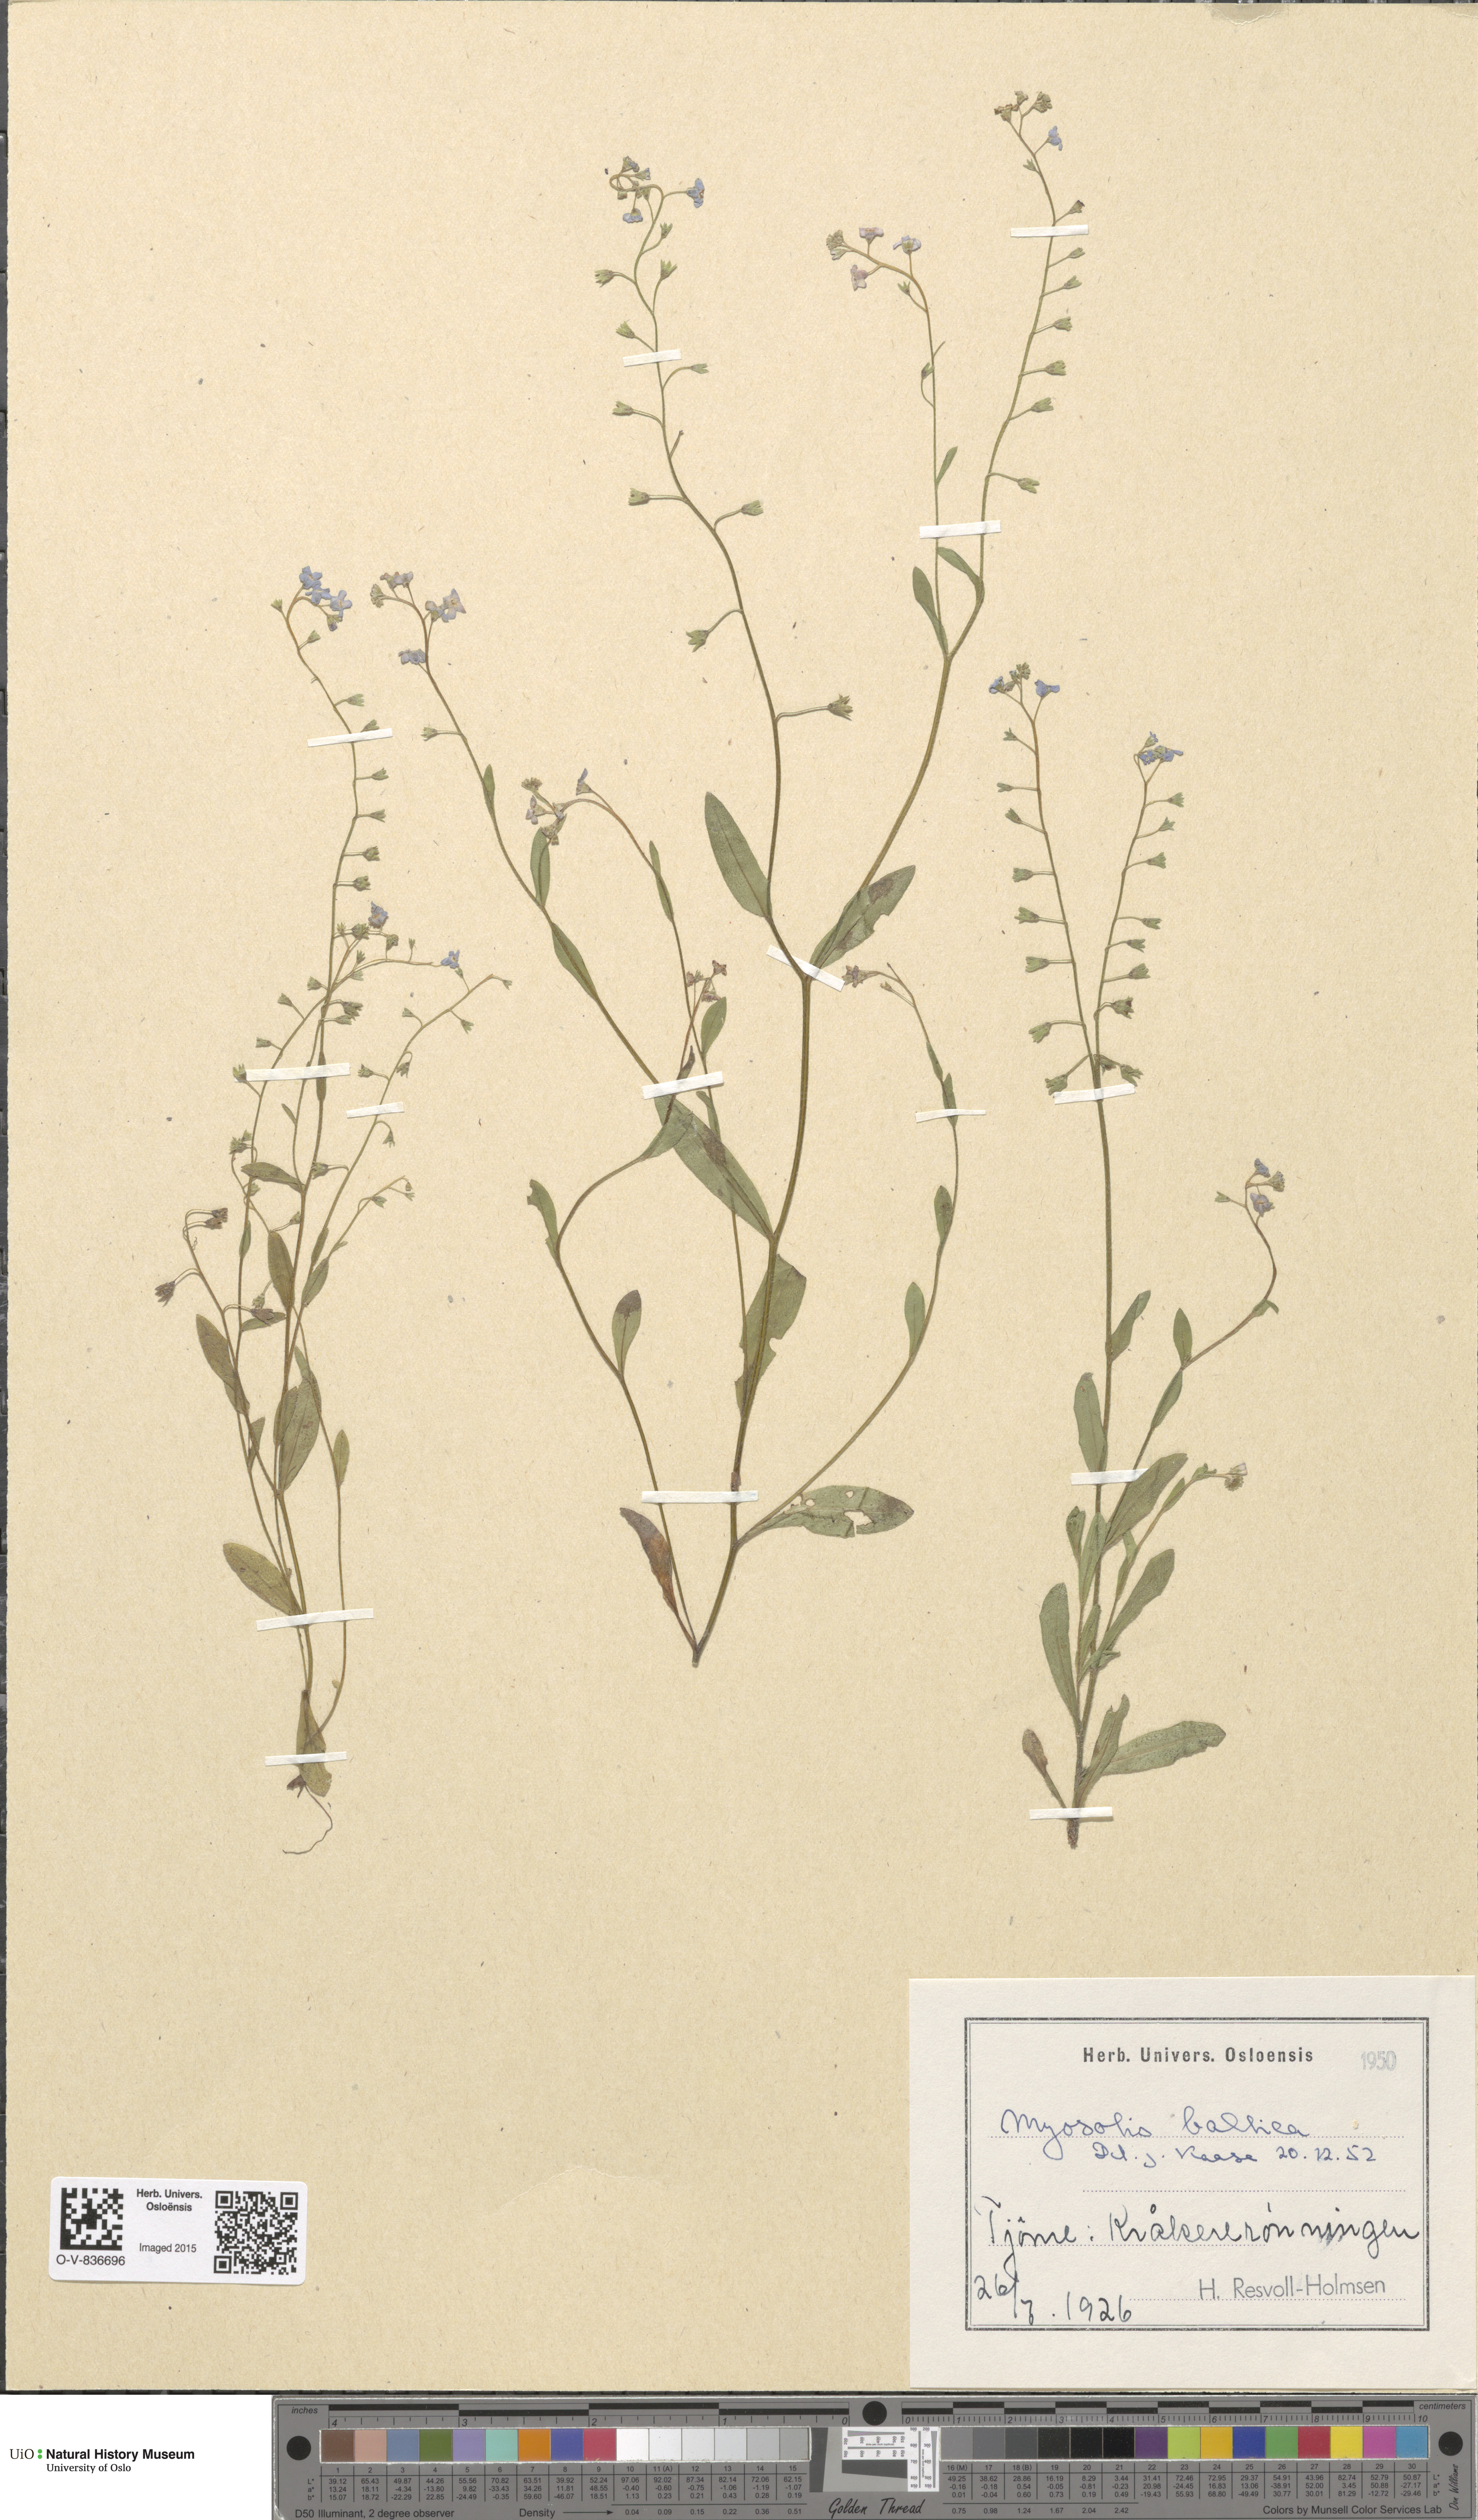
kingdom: Plantae
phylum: Tracheophyta
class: Magnoliopsida
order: Boraginales
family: Boraginaceae
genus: Myosotis
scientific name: Myosotis laxa
